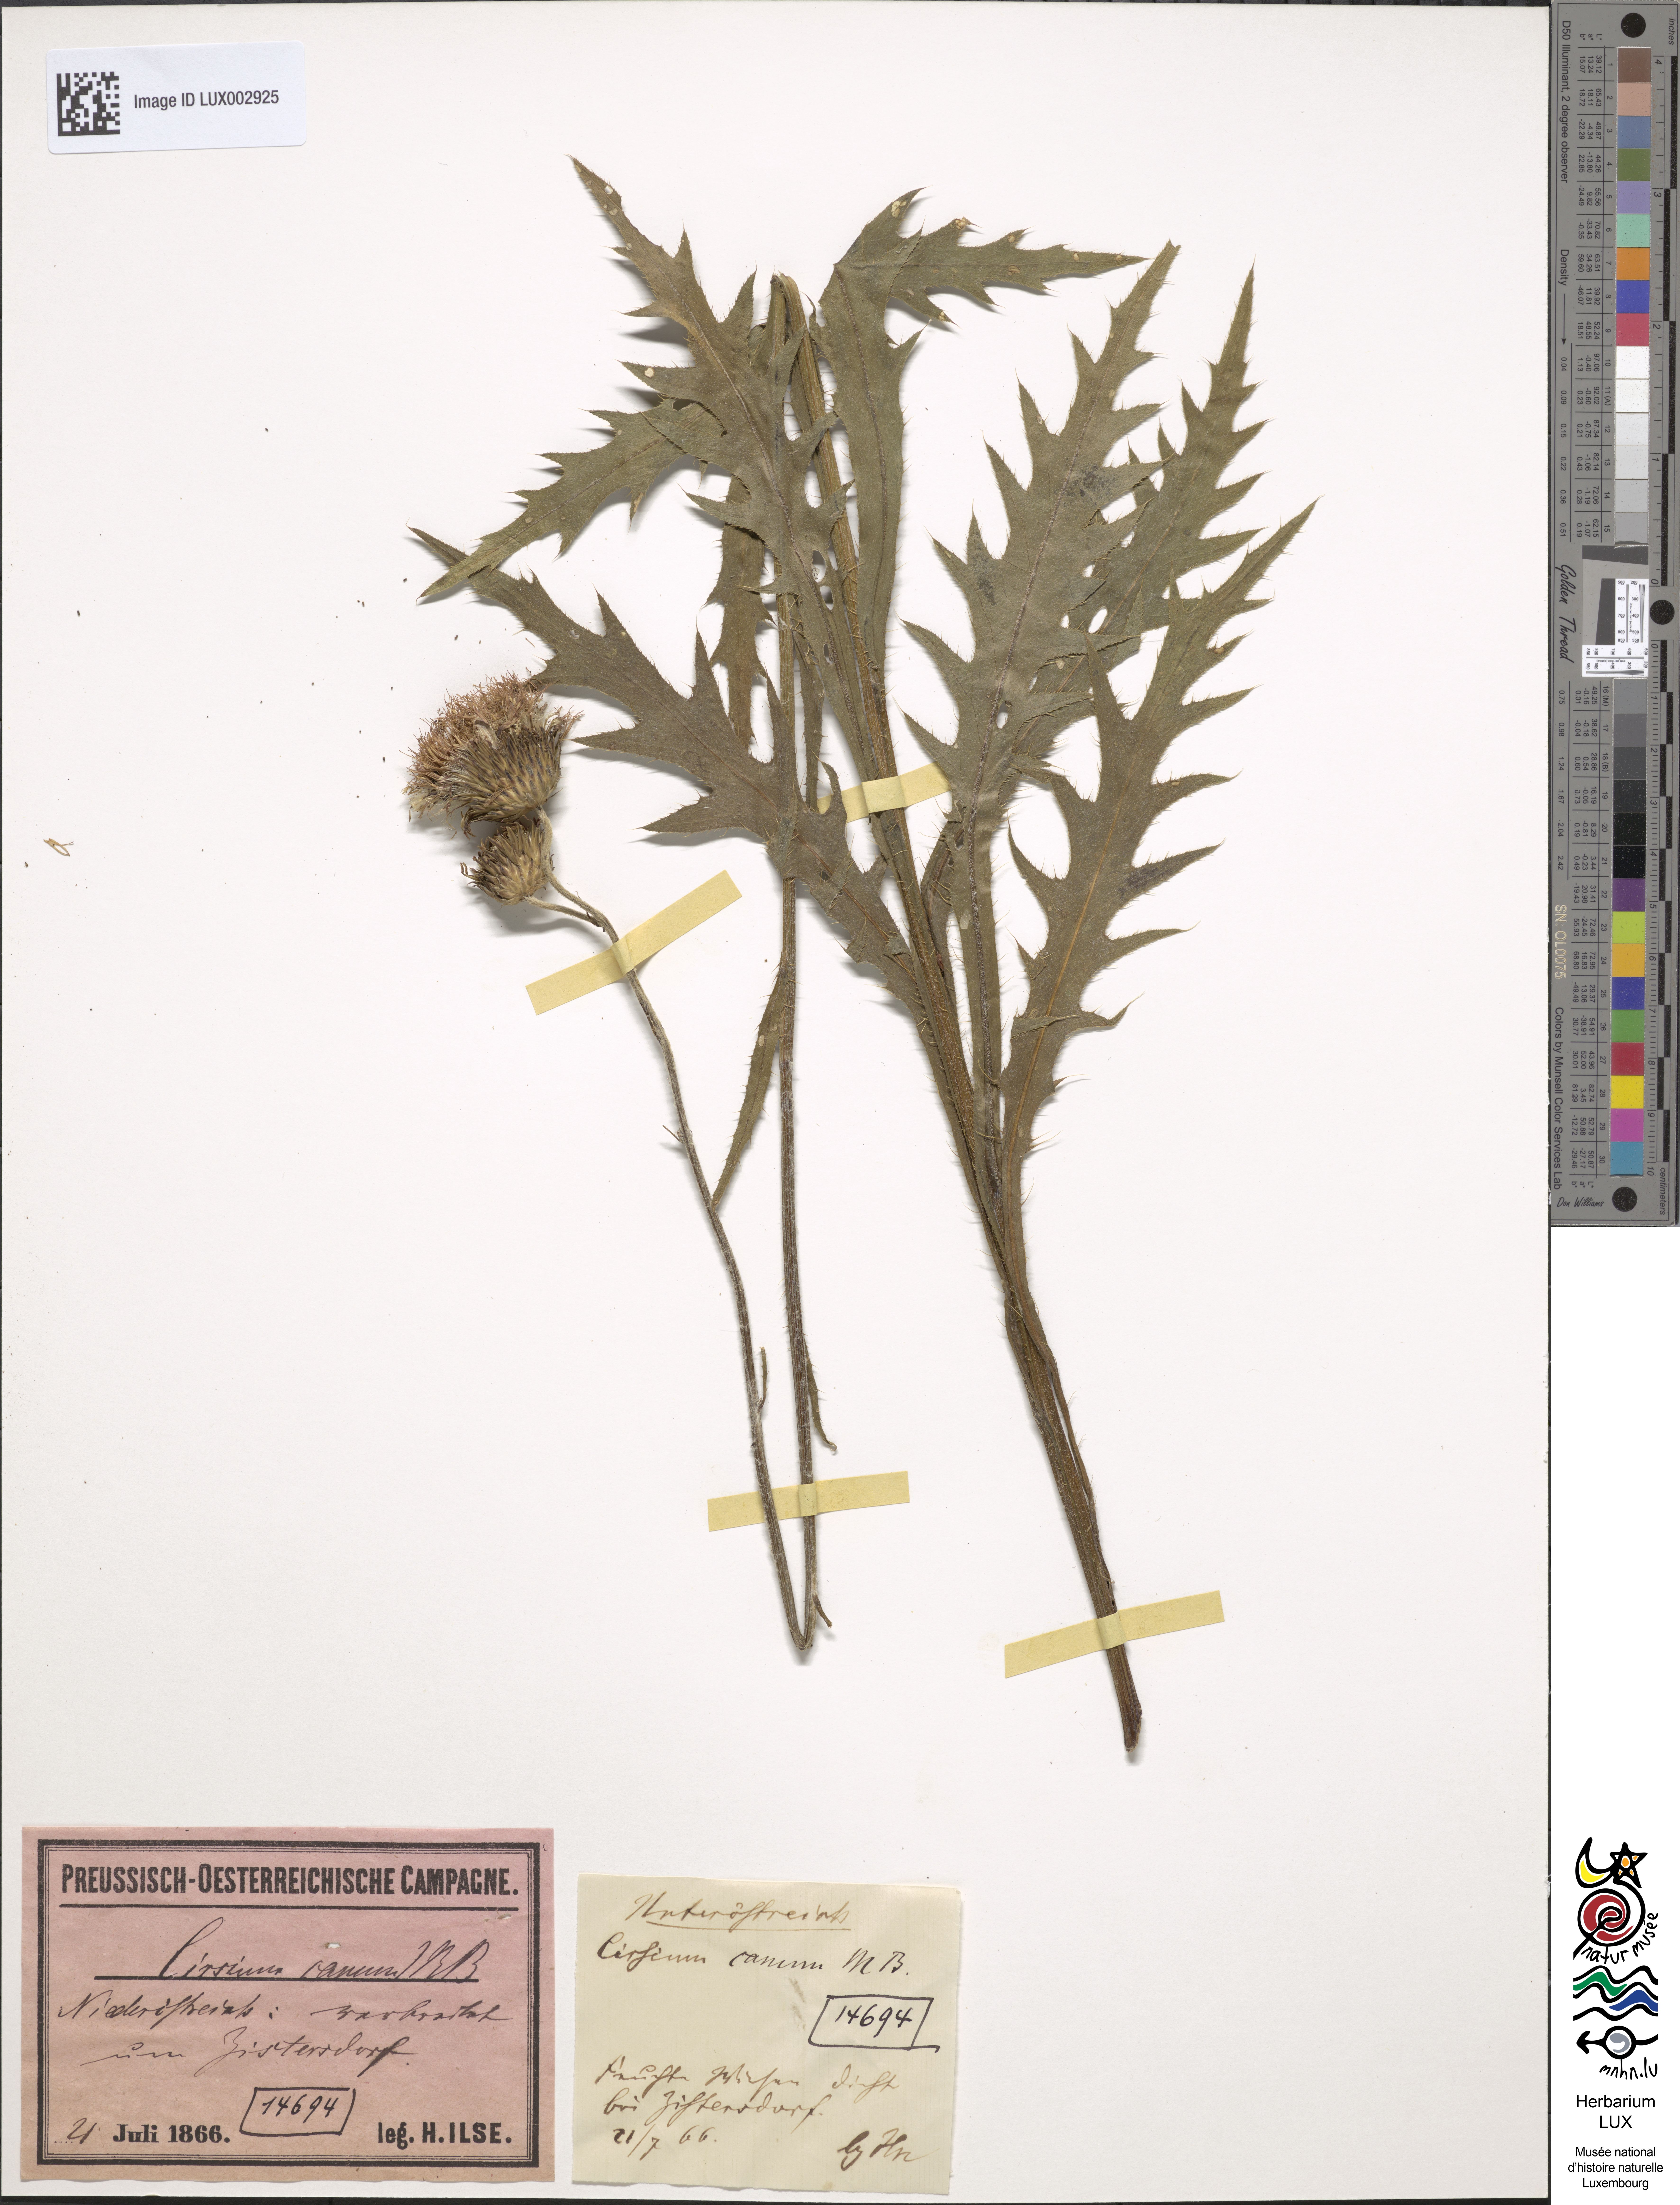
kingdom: Plantae
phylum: Tracheophyta
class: Magnoliopsida
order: Asterales
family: Asteraceae
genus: Cirsium
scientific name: Cirsium canum
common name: Queen anne's thistle
